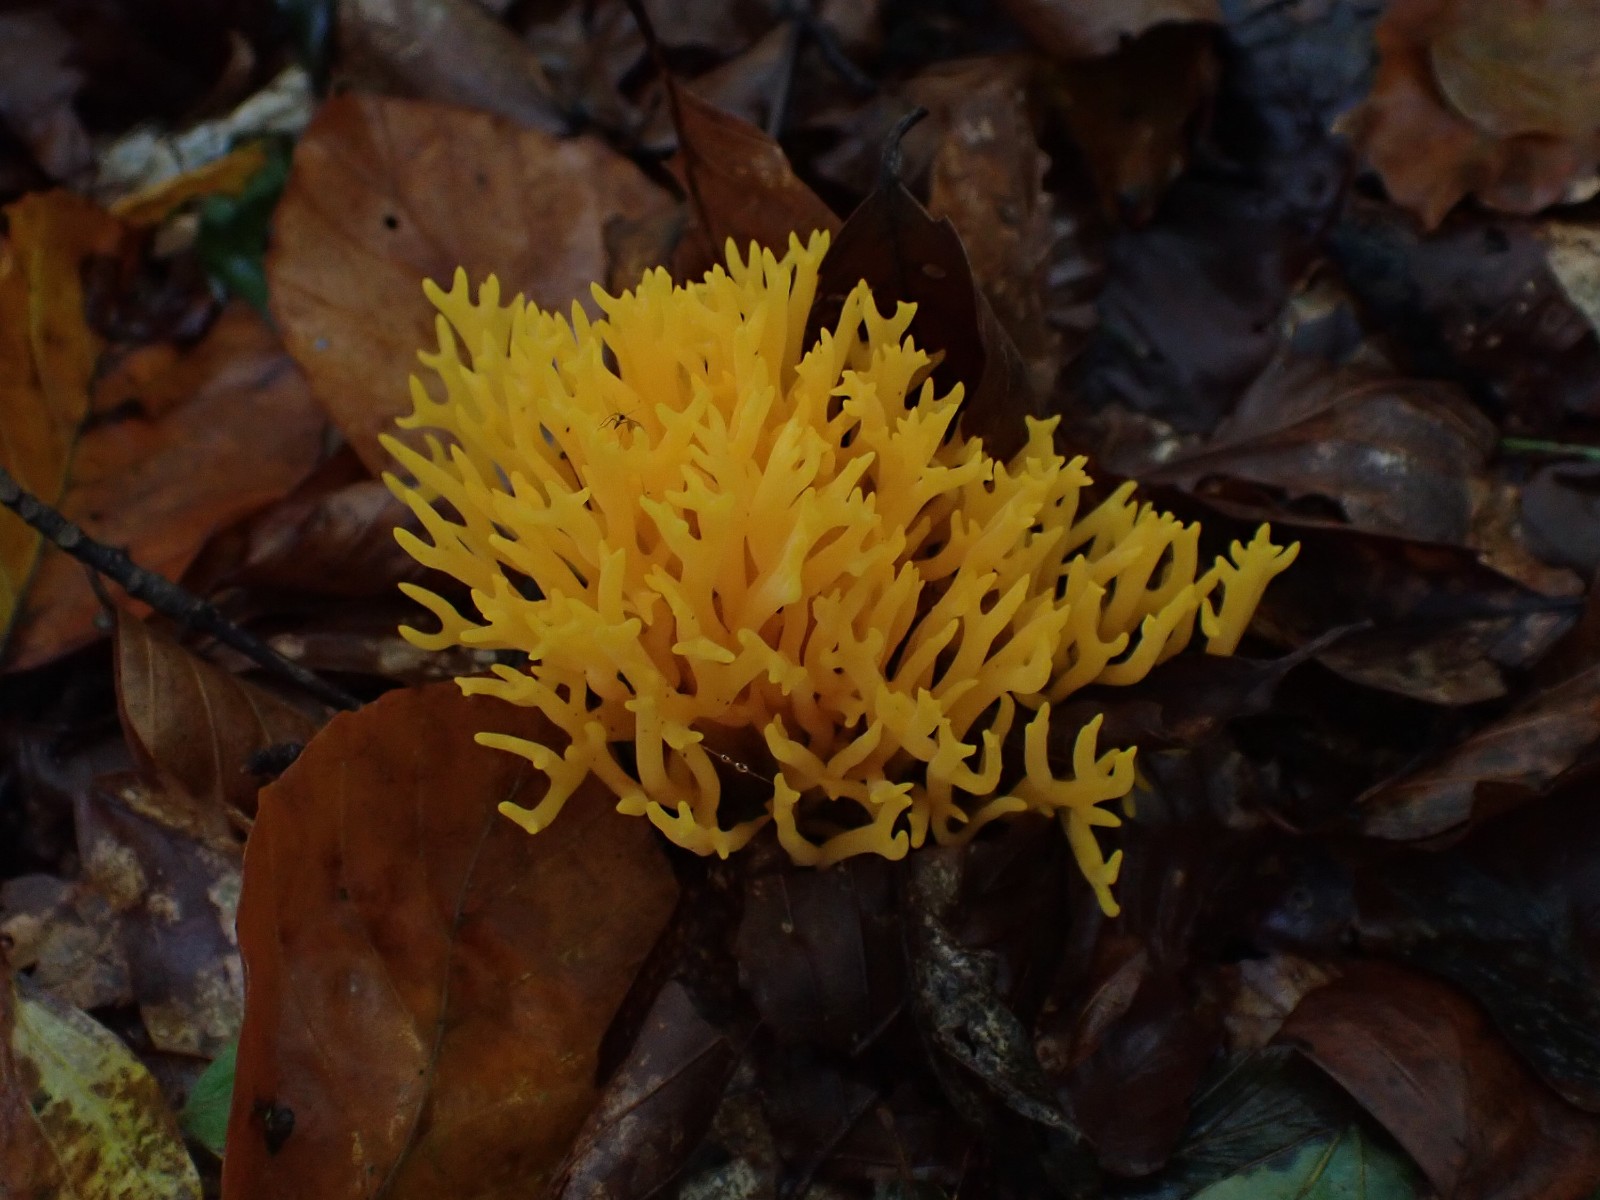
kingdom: Fungi
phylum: Basidiomycota
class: Dacrymycetes
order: Dacrymycetales
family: Dacrymycetaceae
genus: Calocera
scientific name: Calocera viscosa
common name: almindelig guldgaffel
